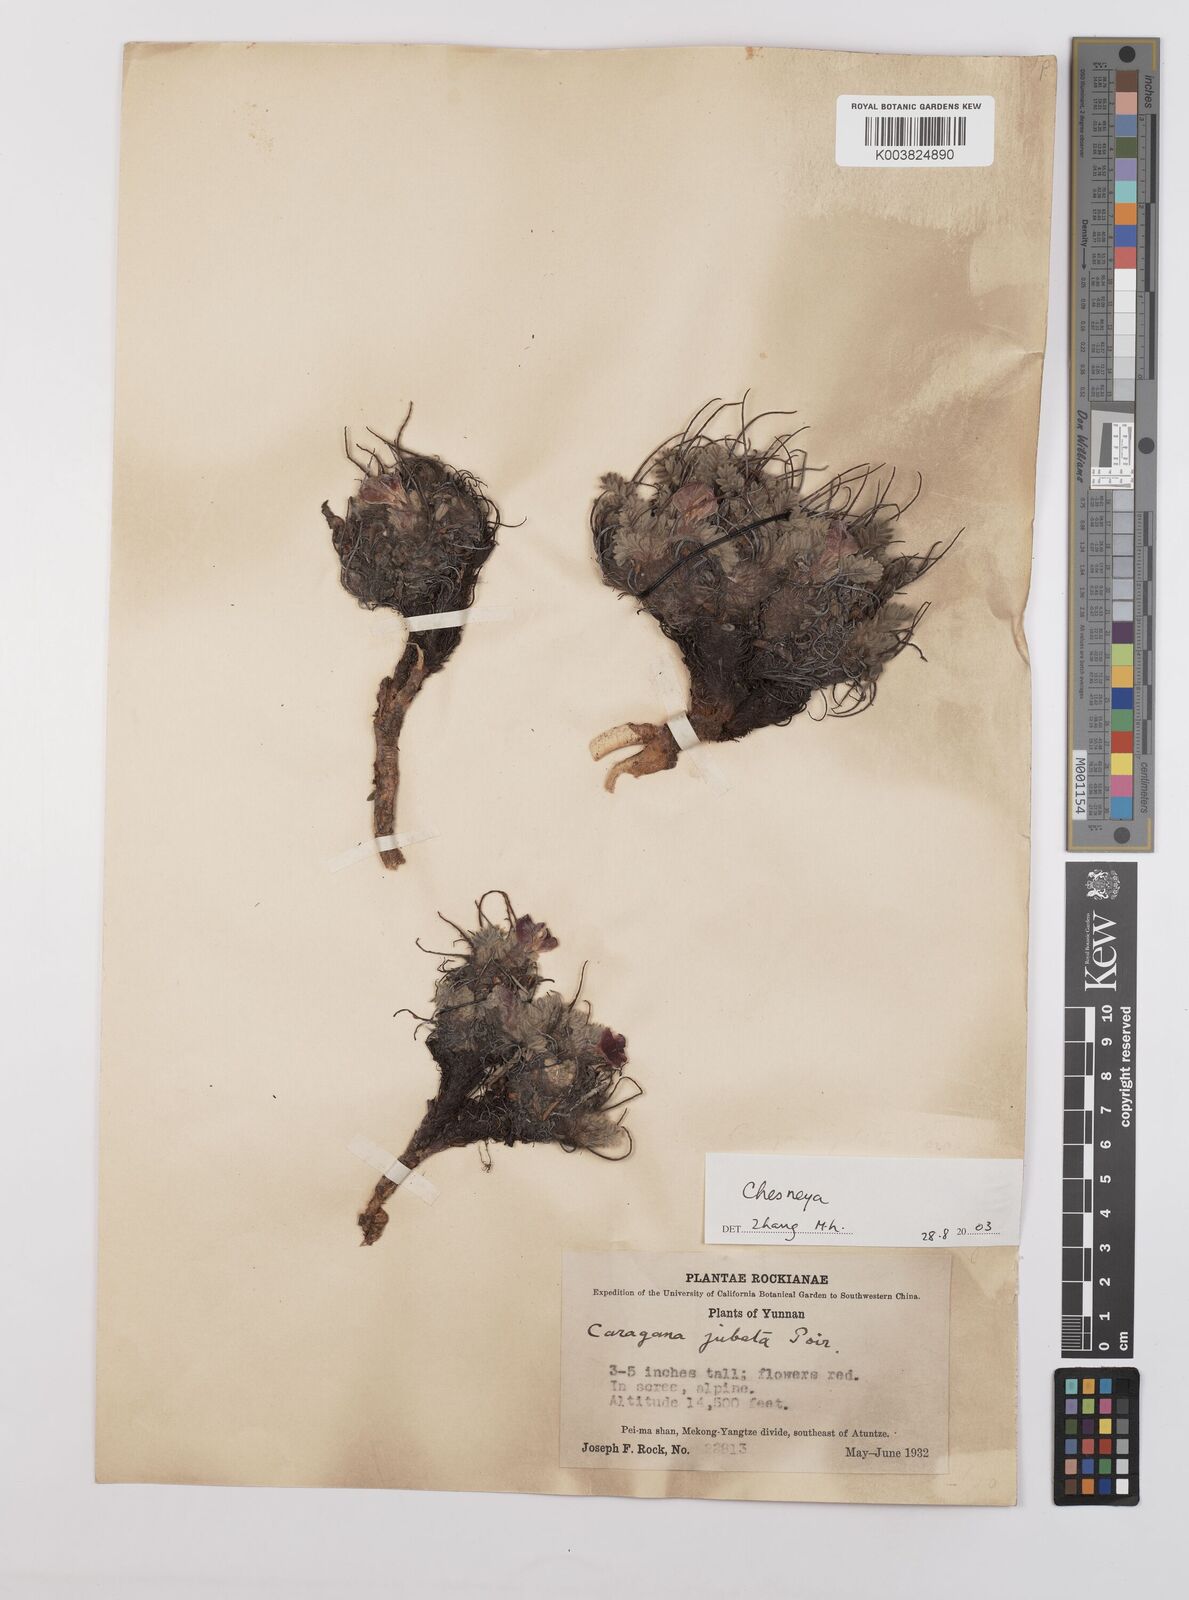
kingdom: Plantae
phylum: Tracheophyta
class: Magnoliopsida
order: Fabales
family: Fabaceae
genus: Chesneya
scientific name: Chesneya
